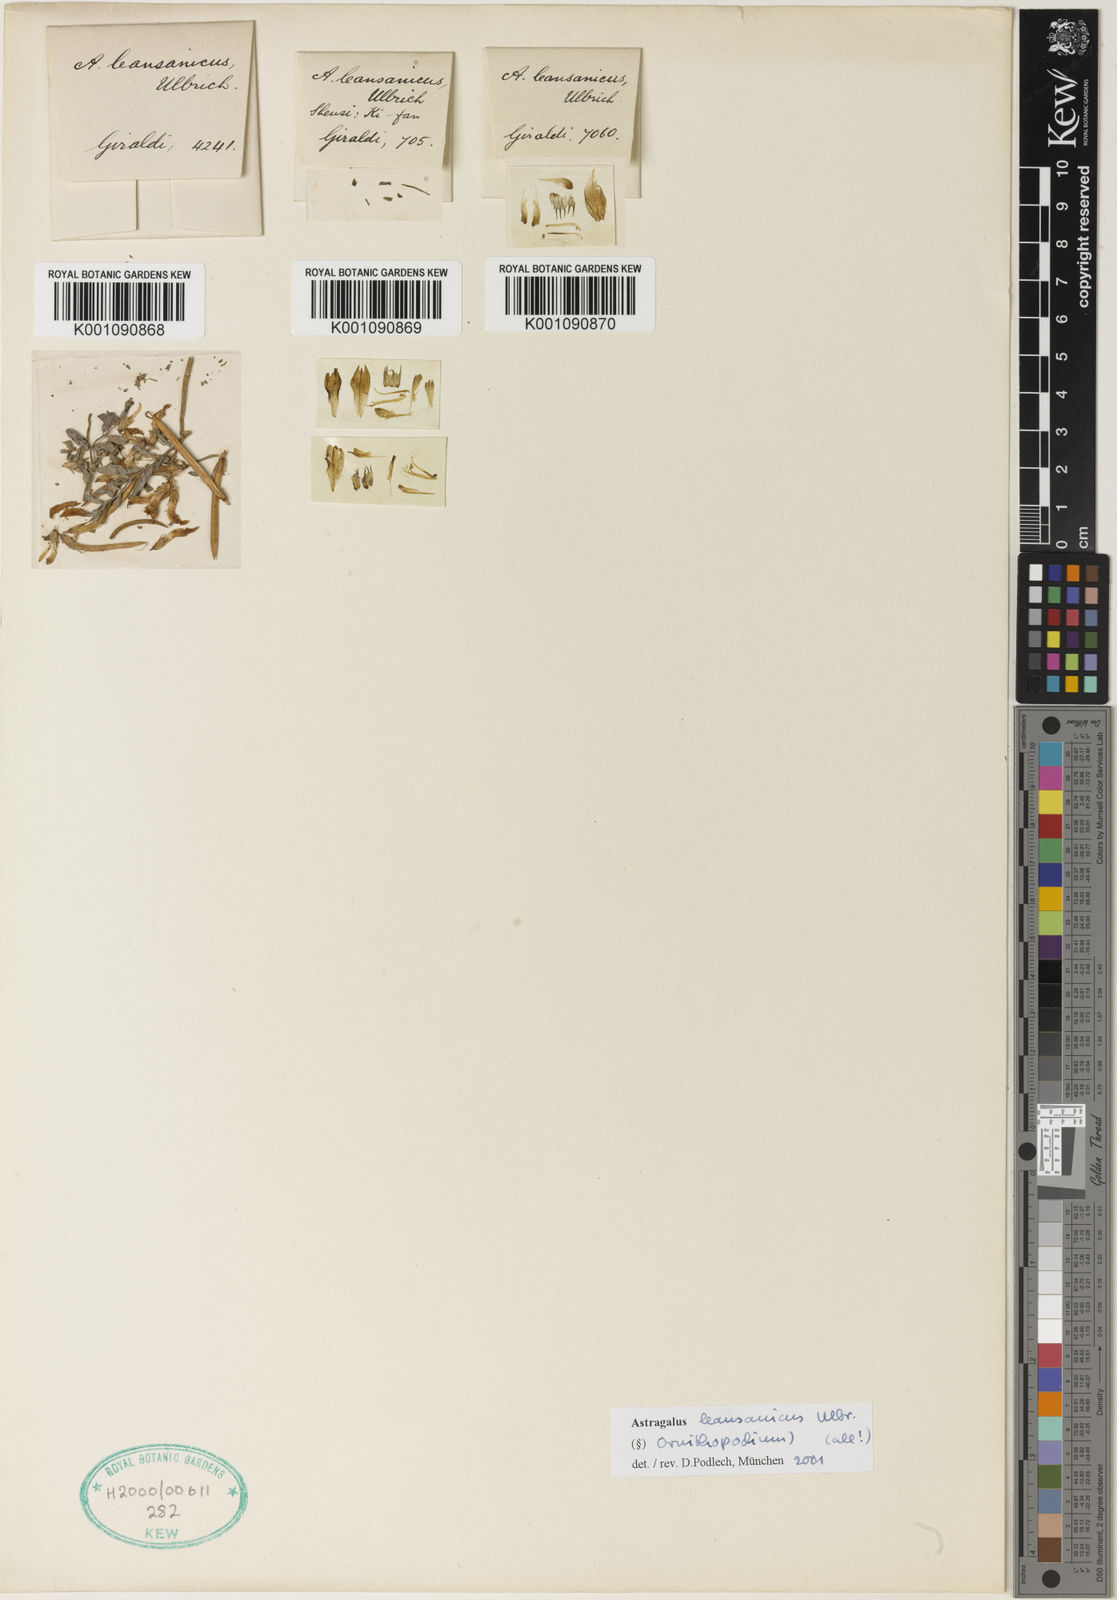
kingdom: Plantae
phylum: Tracheophyta
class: Magnoliopsida
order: Fabales
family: Fabaceae
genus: Astragalus
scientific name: Astragalus
